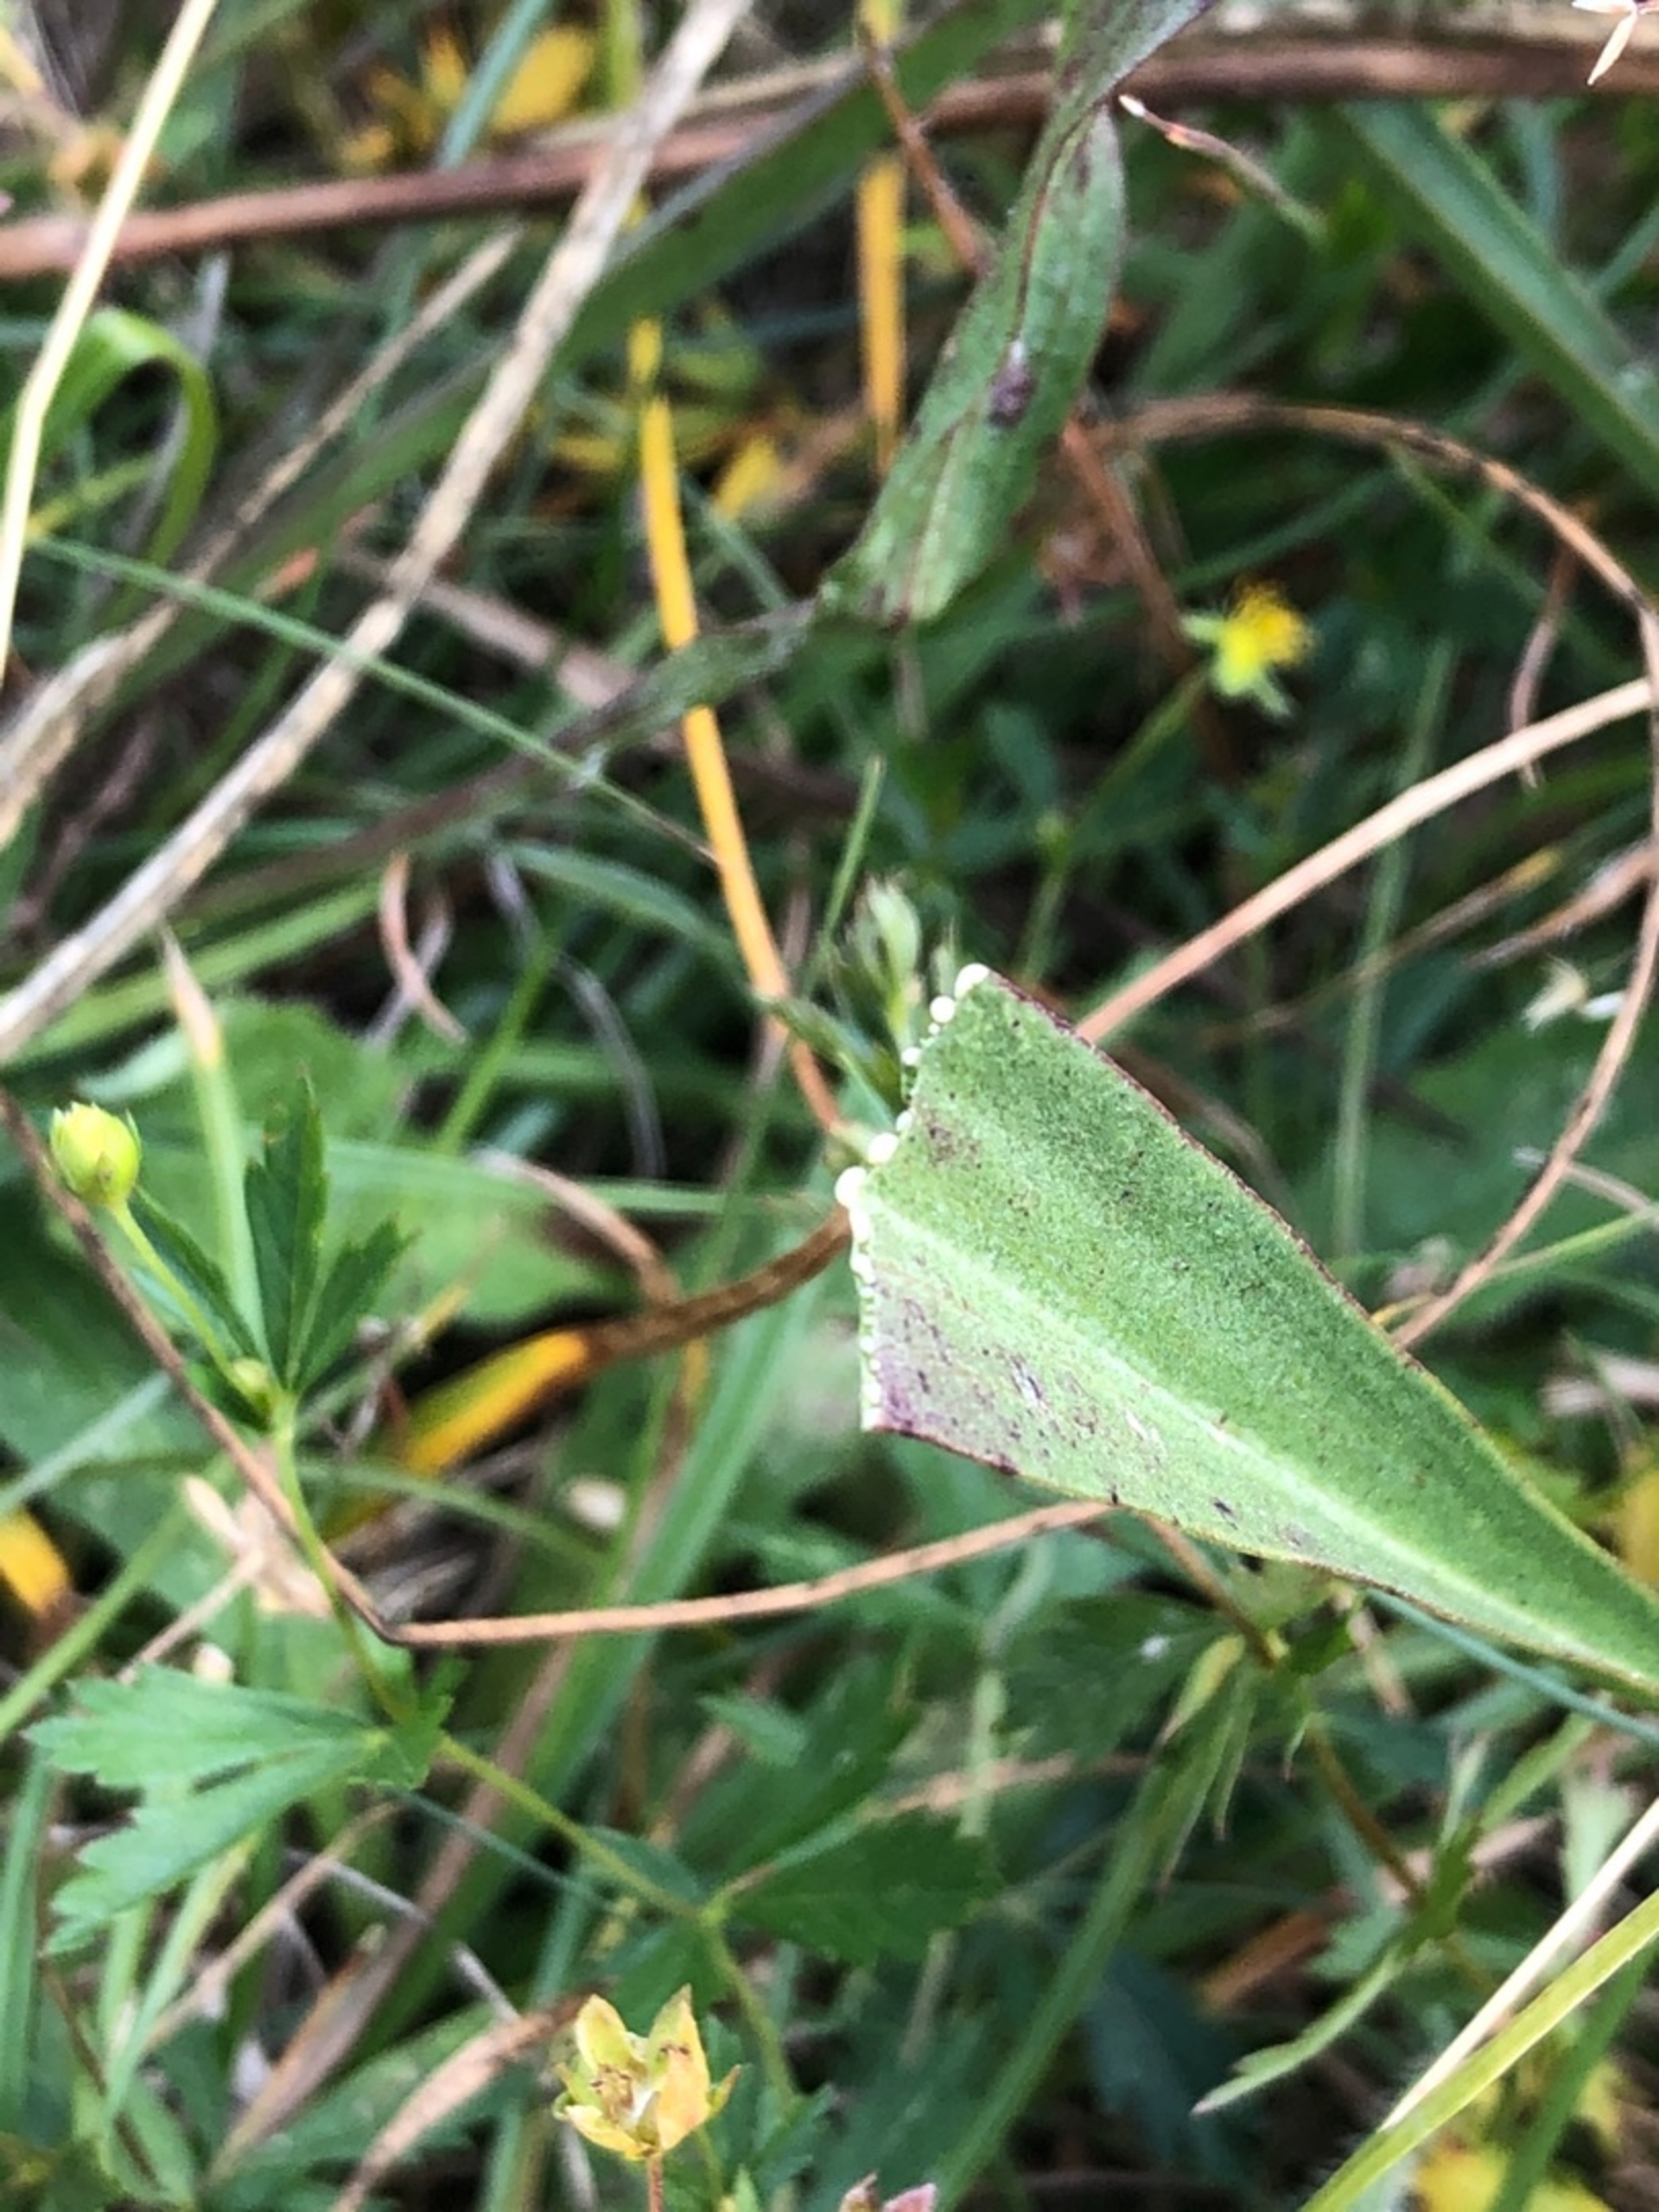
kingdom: Plantae
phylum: Tracheophyta
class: Magnoliopsida
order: Asterales
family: Asteraceae
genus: Scorzonera
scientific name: Scorzonera humilis
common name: Lav skorsoner
